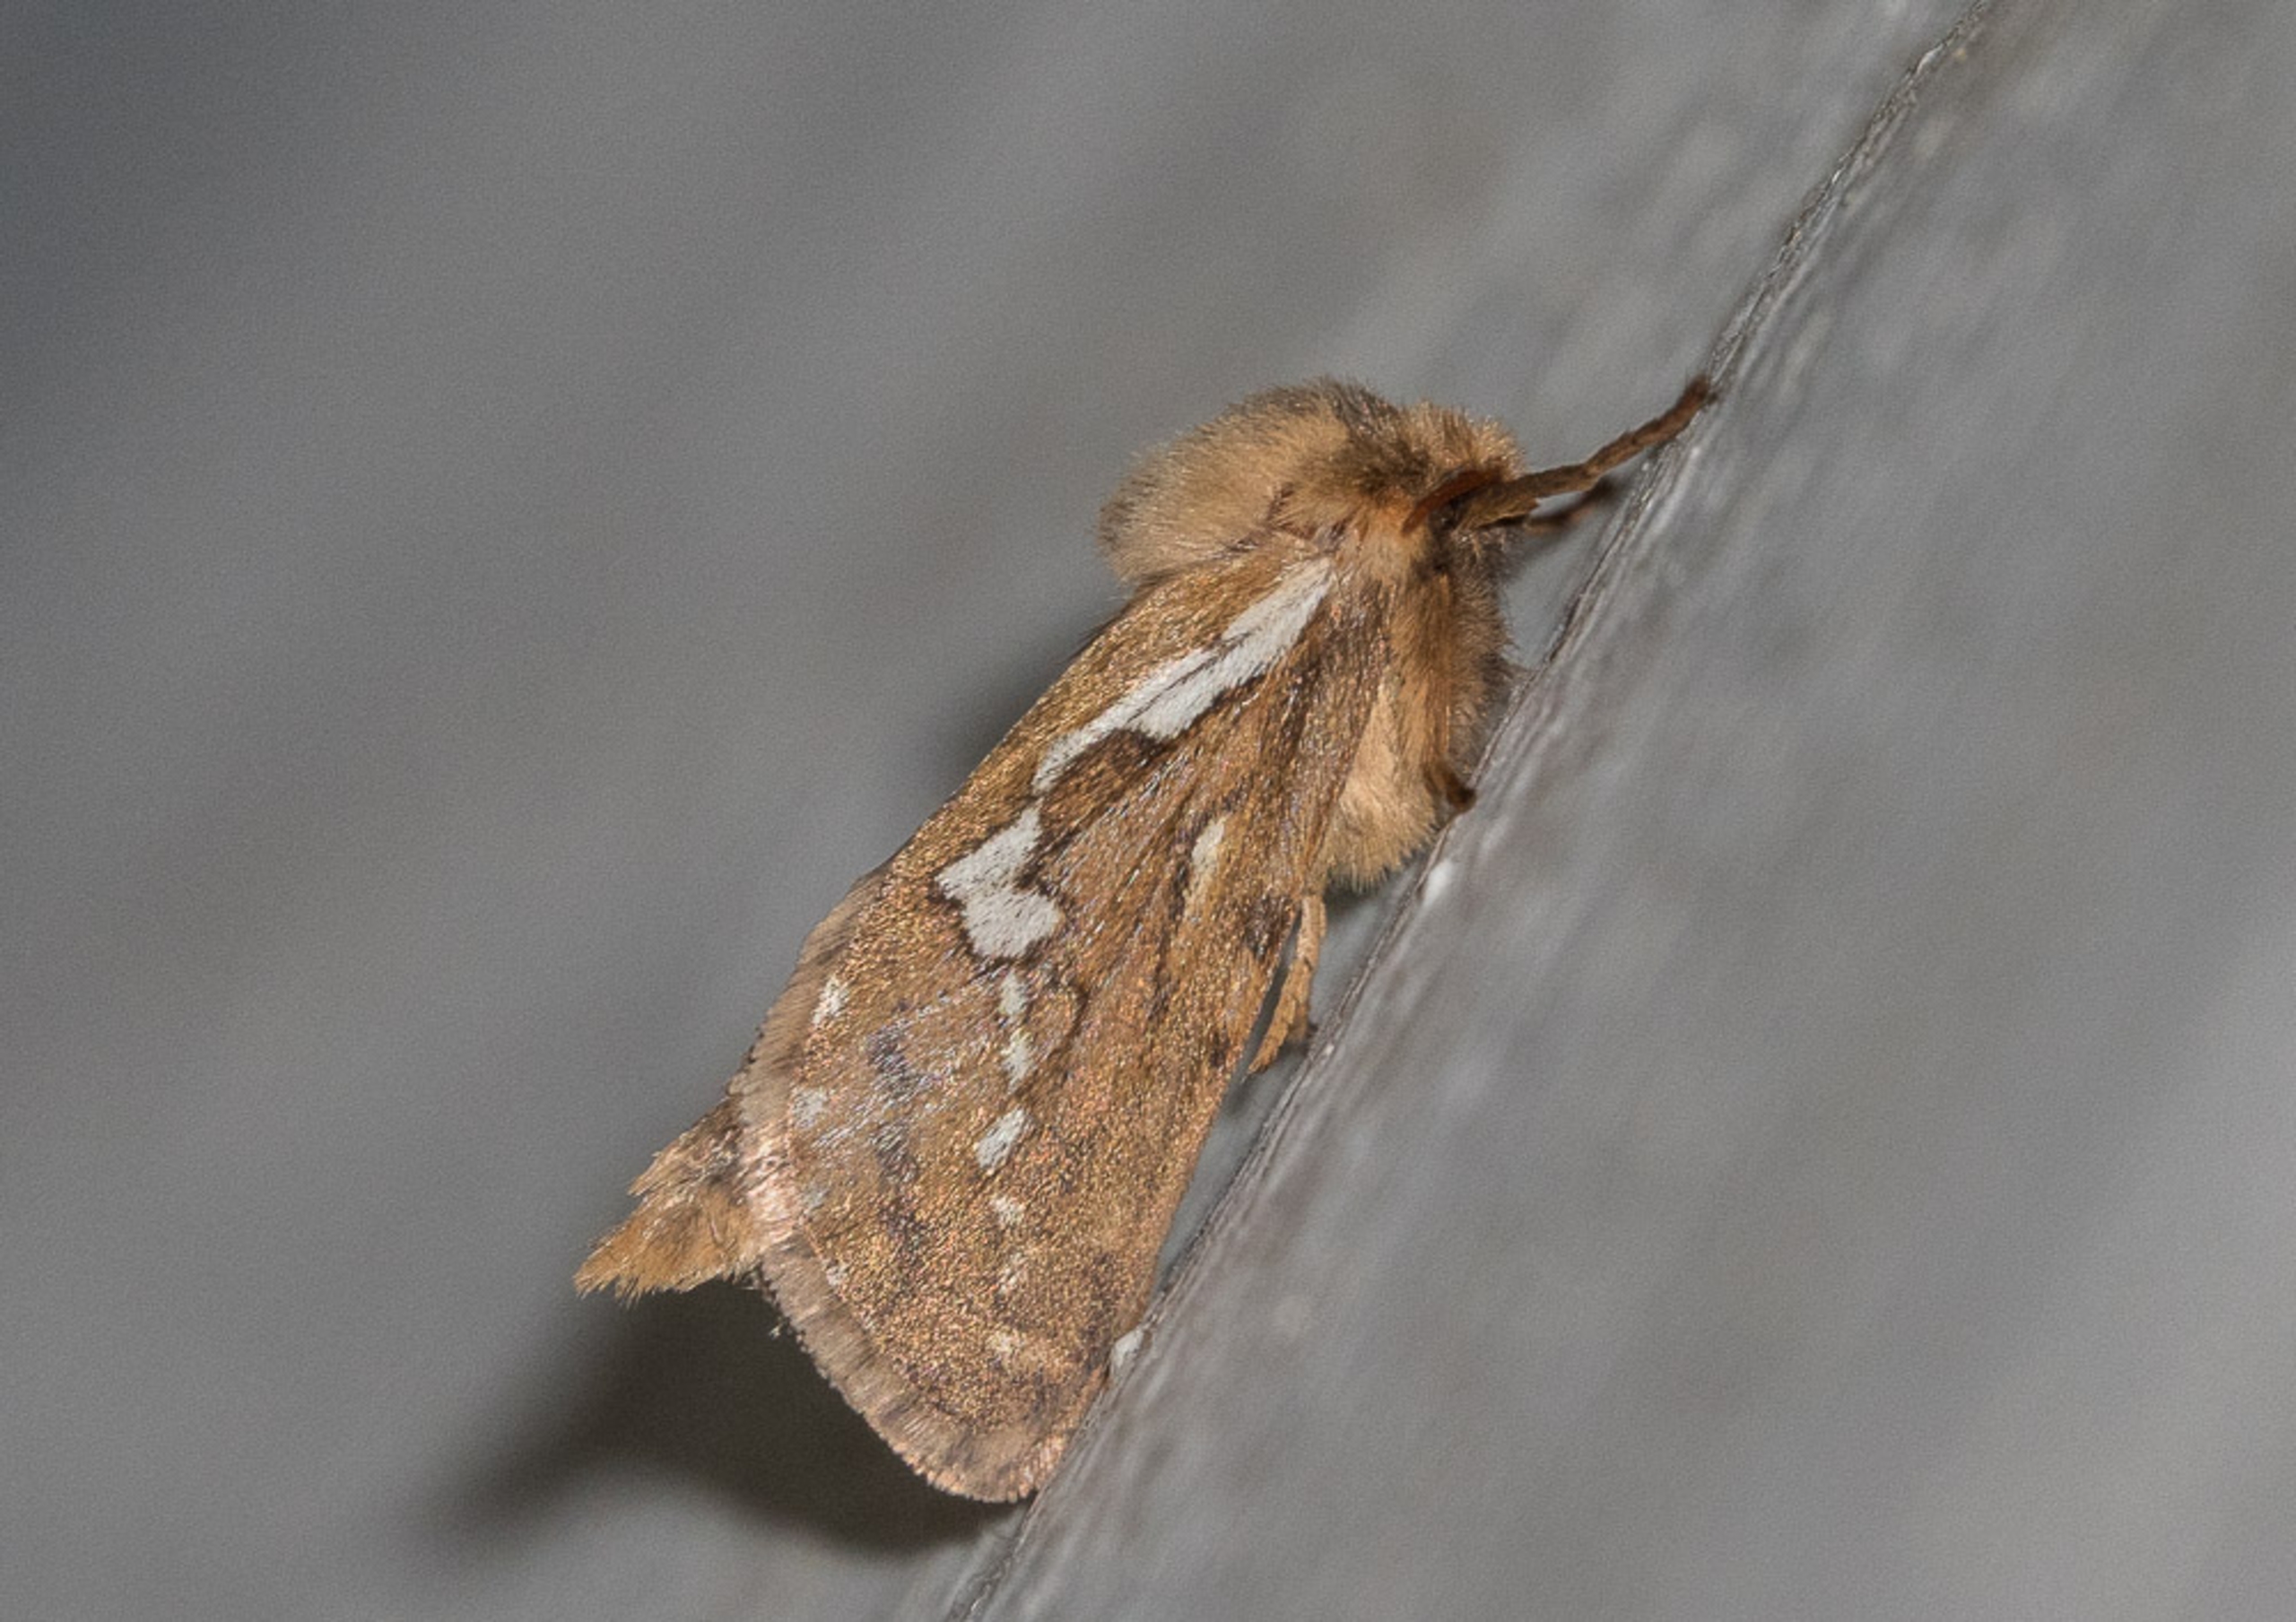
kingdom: Animalia
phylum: Arthropoda
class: Insecta
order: Lepidoptera
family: Hepialidae
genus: Korscheltellus
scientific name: Korscheltellus lupulina
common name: Konvalrodæder
